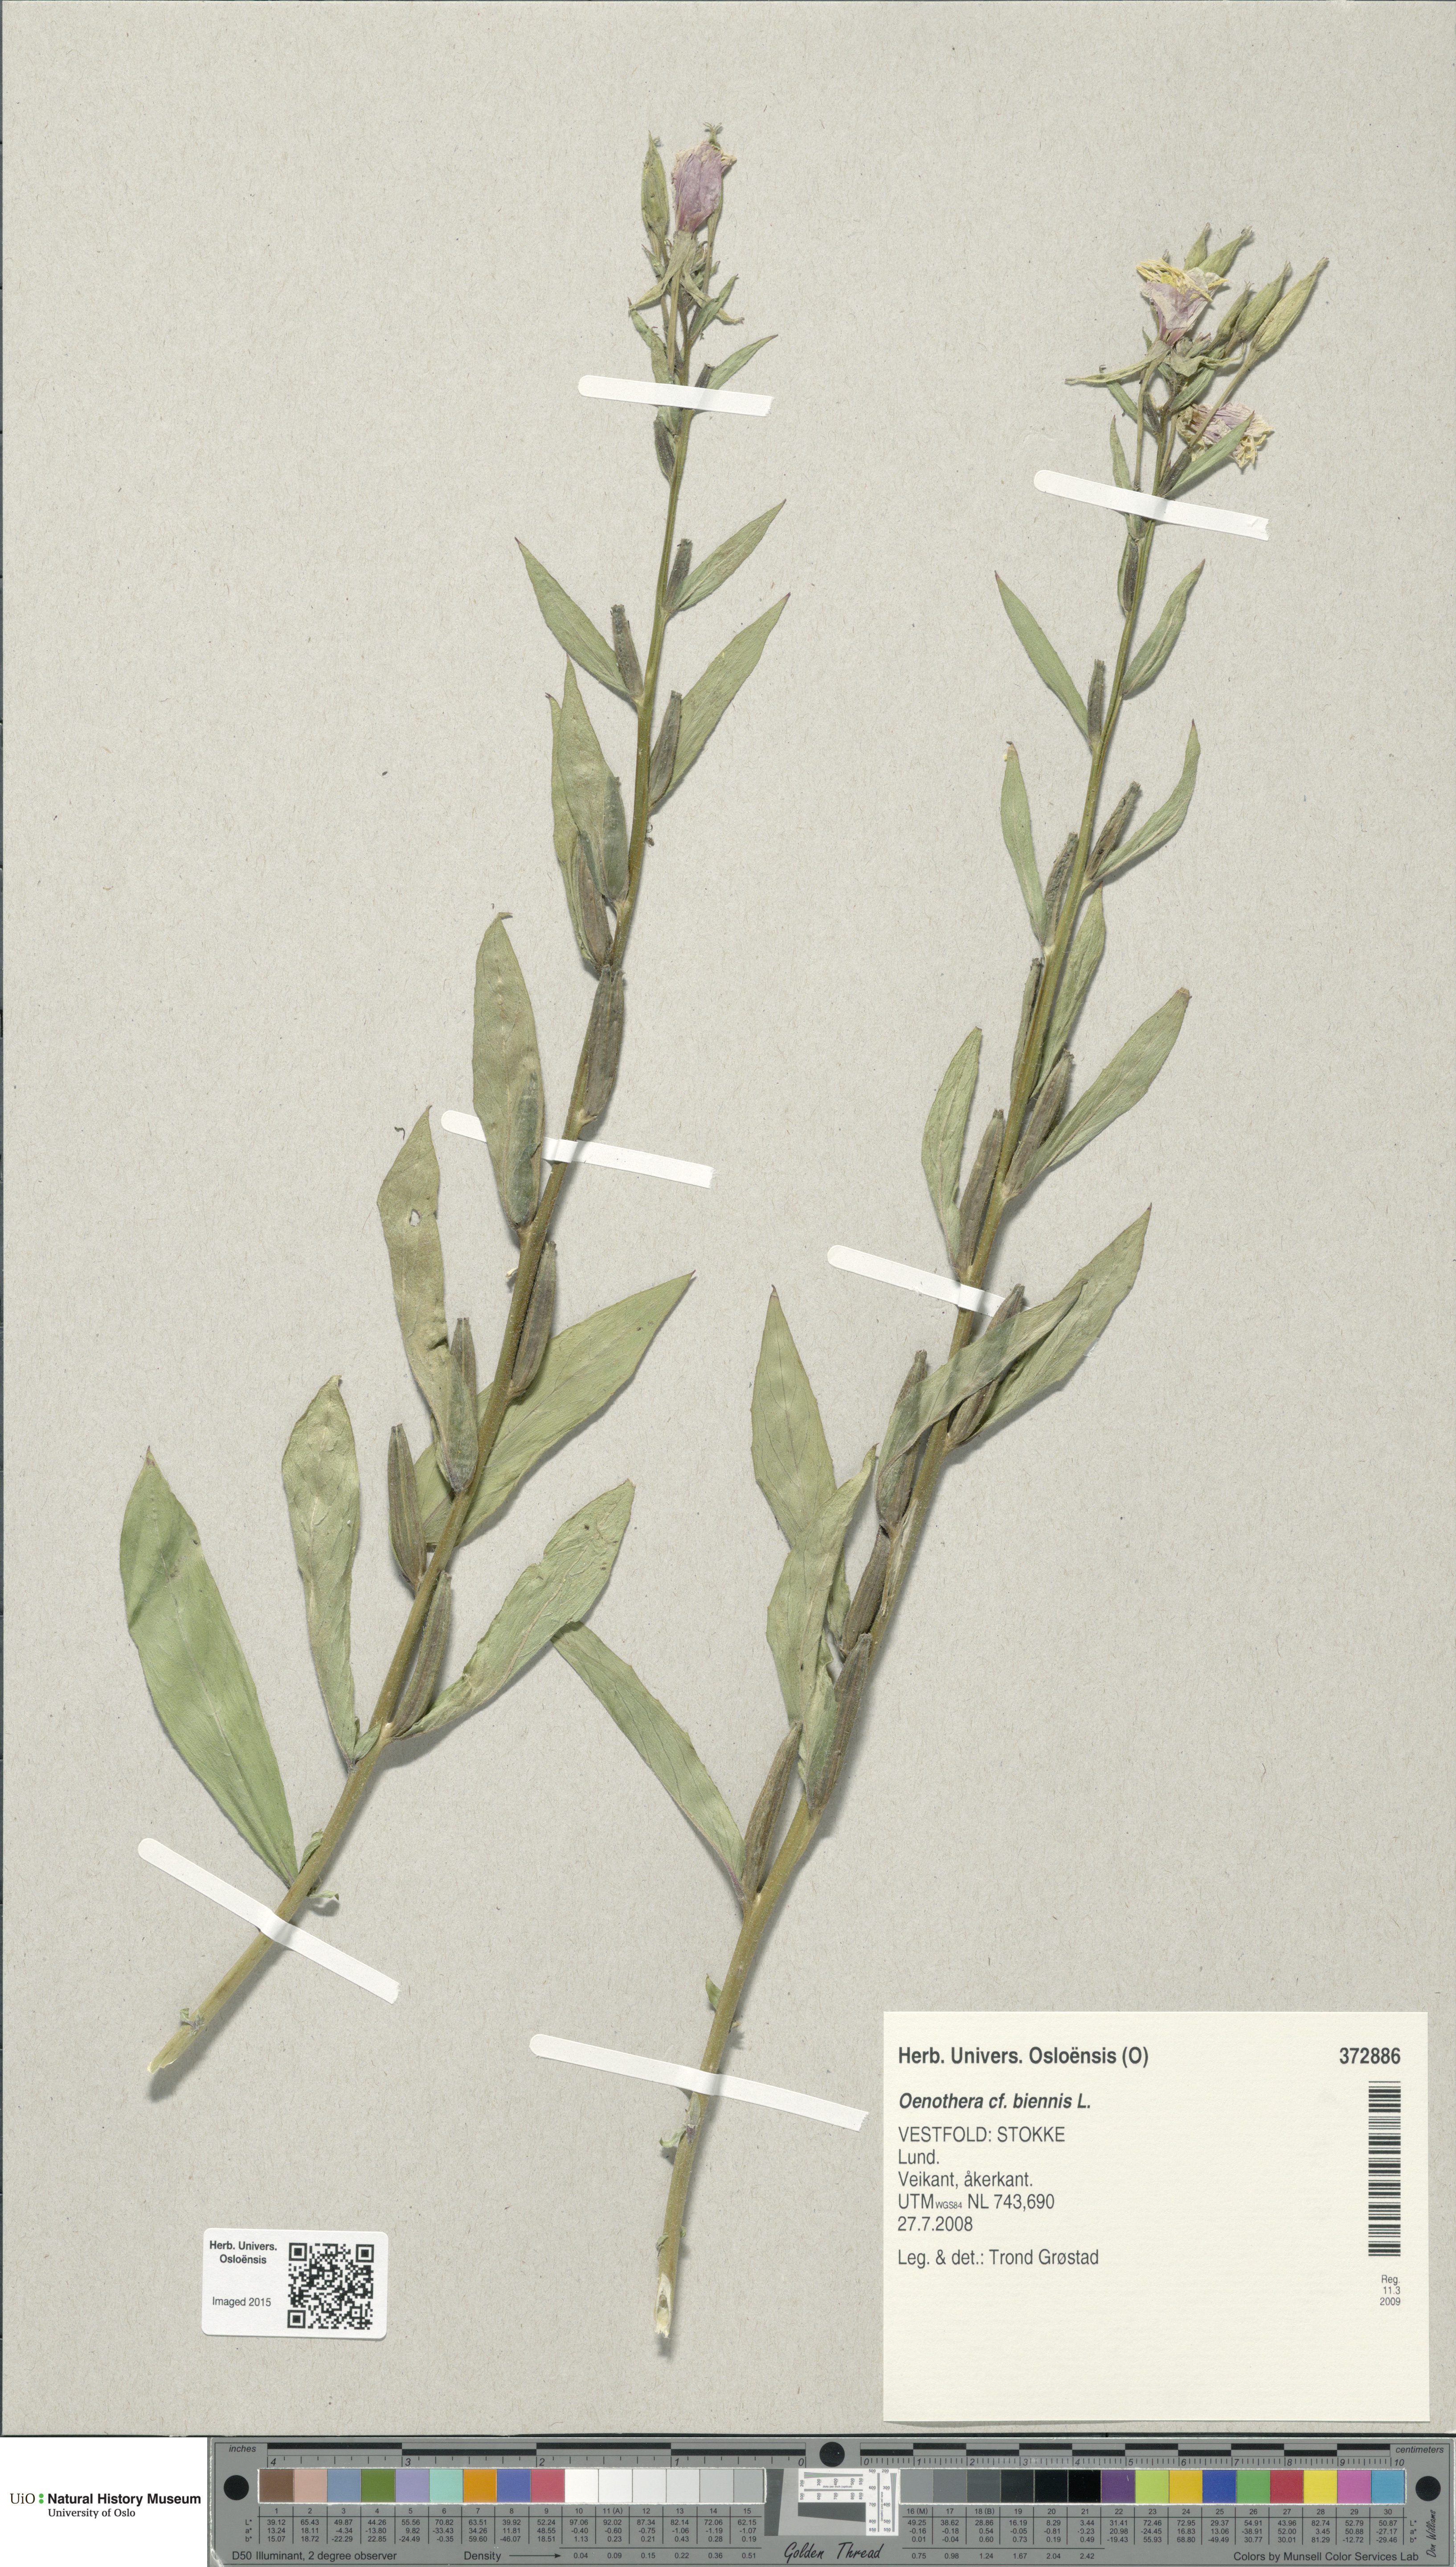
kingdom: Plantae
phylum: Tracheophyta
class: Magnoliopsida
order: Myrtales
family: Onagraceae
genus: Oenothera
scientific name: Oenothera biennis
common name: Common evening-primrose
